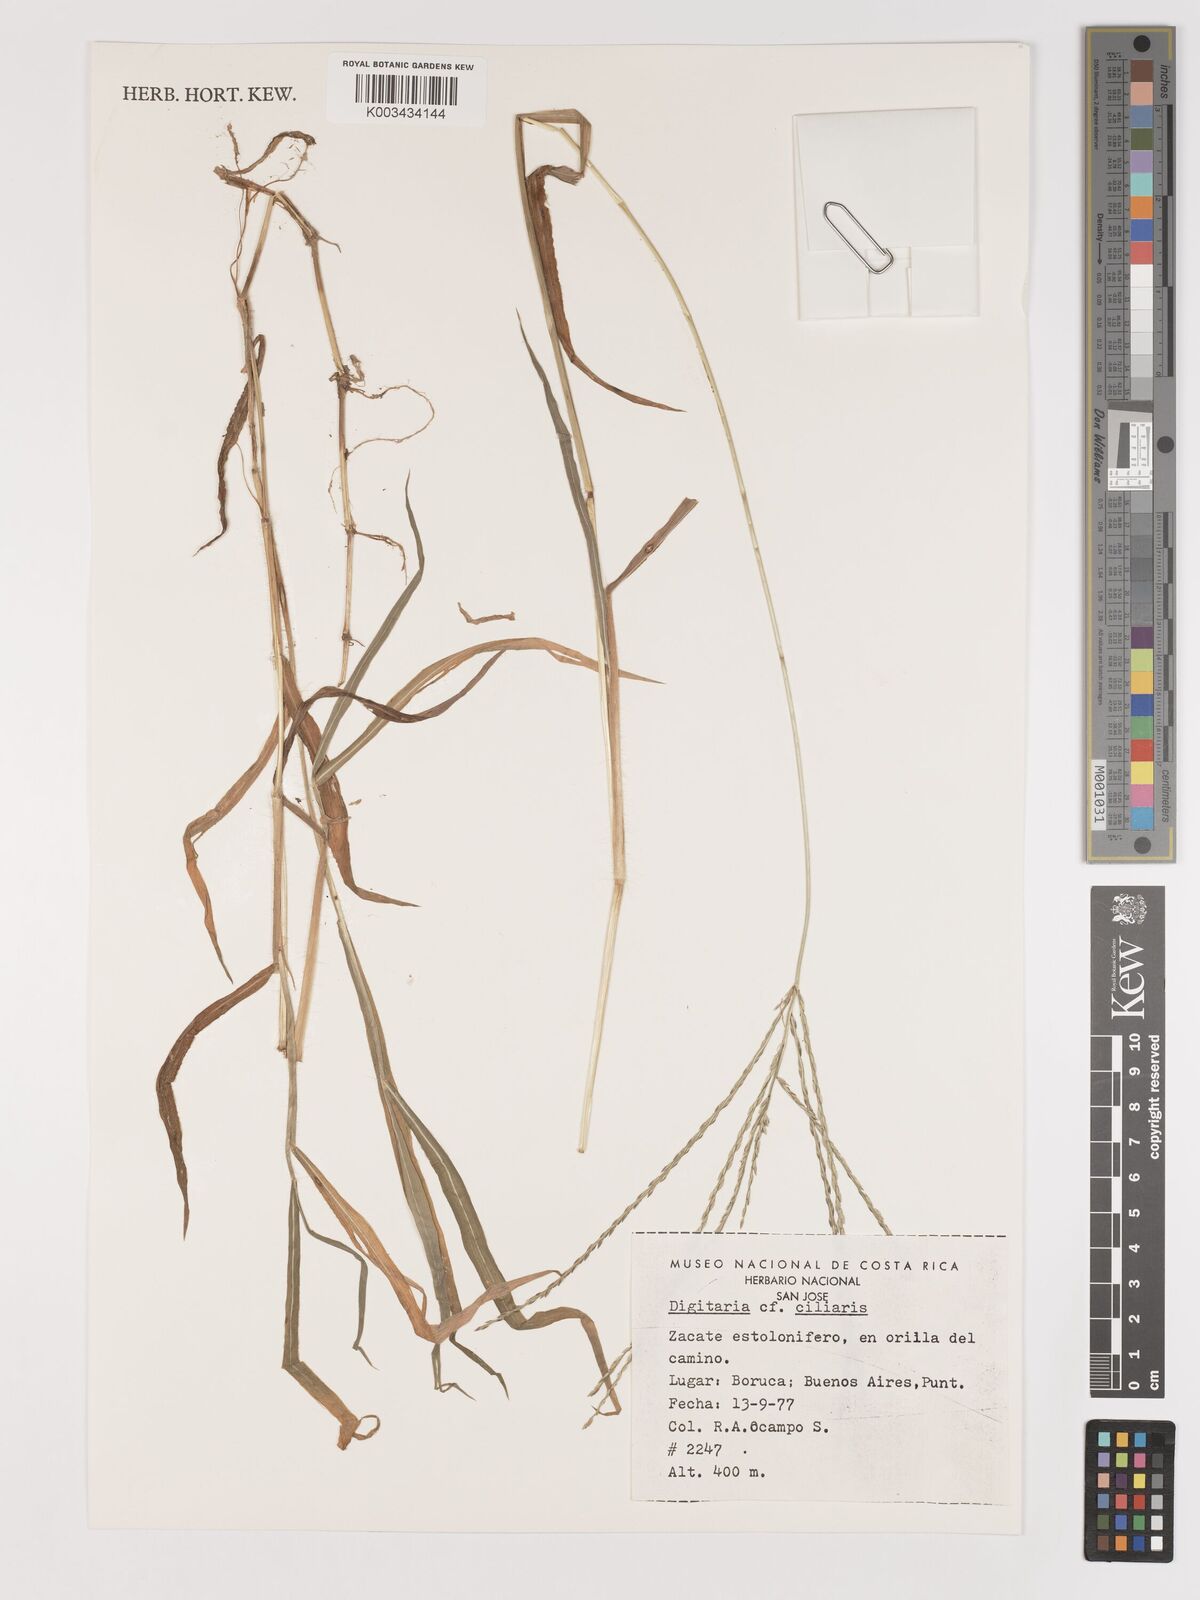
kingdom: Plantae
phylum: Tracheophyta
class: Liliopsida
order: Poales
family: Poaceae
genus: Digitaria
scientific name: Digitaria ciliaris
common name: Tropical finger-grass
